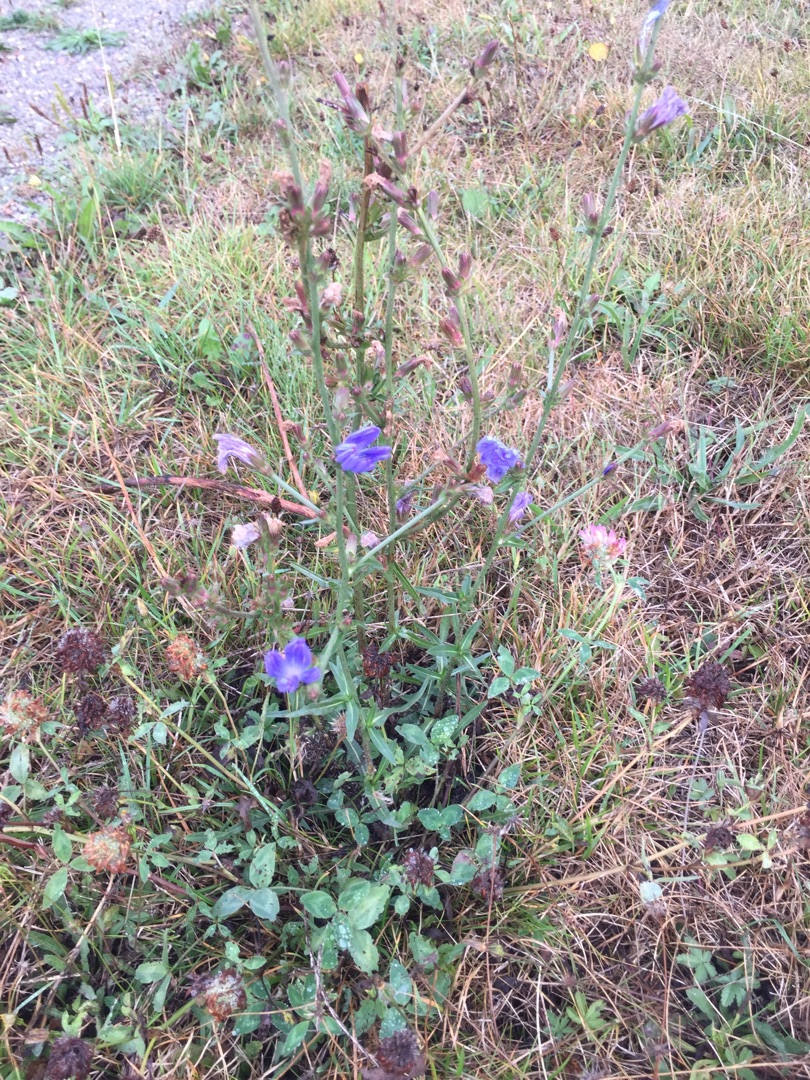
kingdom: Plantae
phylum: Tracheophyta
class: Magnoliopsida
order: Asterales
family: Asteraceae
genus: Cichorium
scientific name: Cichorium intybus
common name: Cikorie
